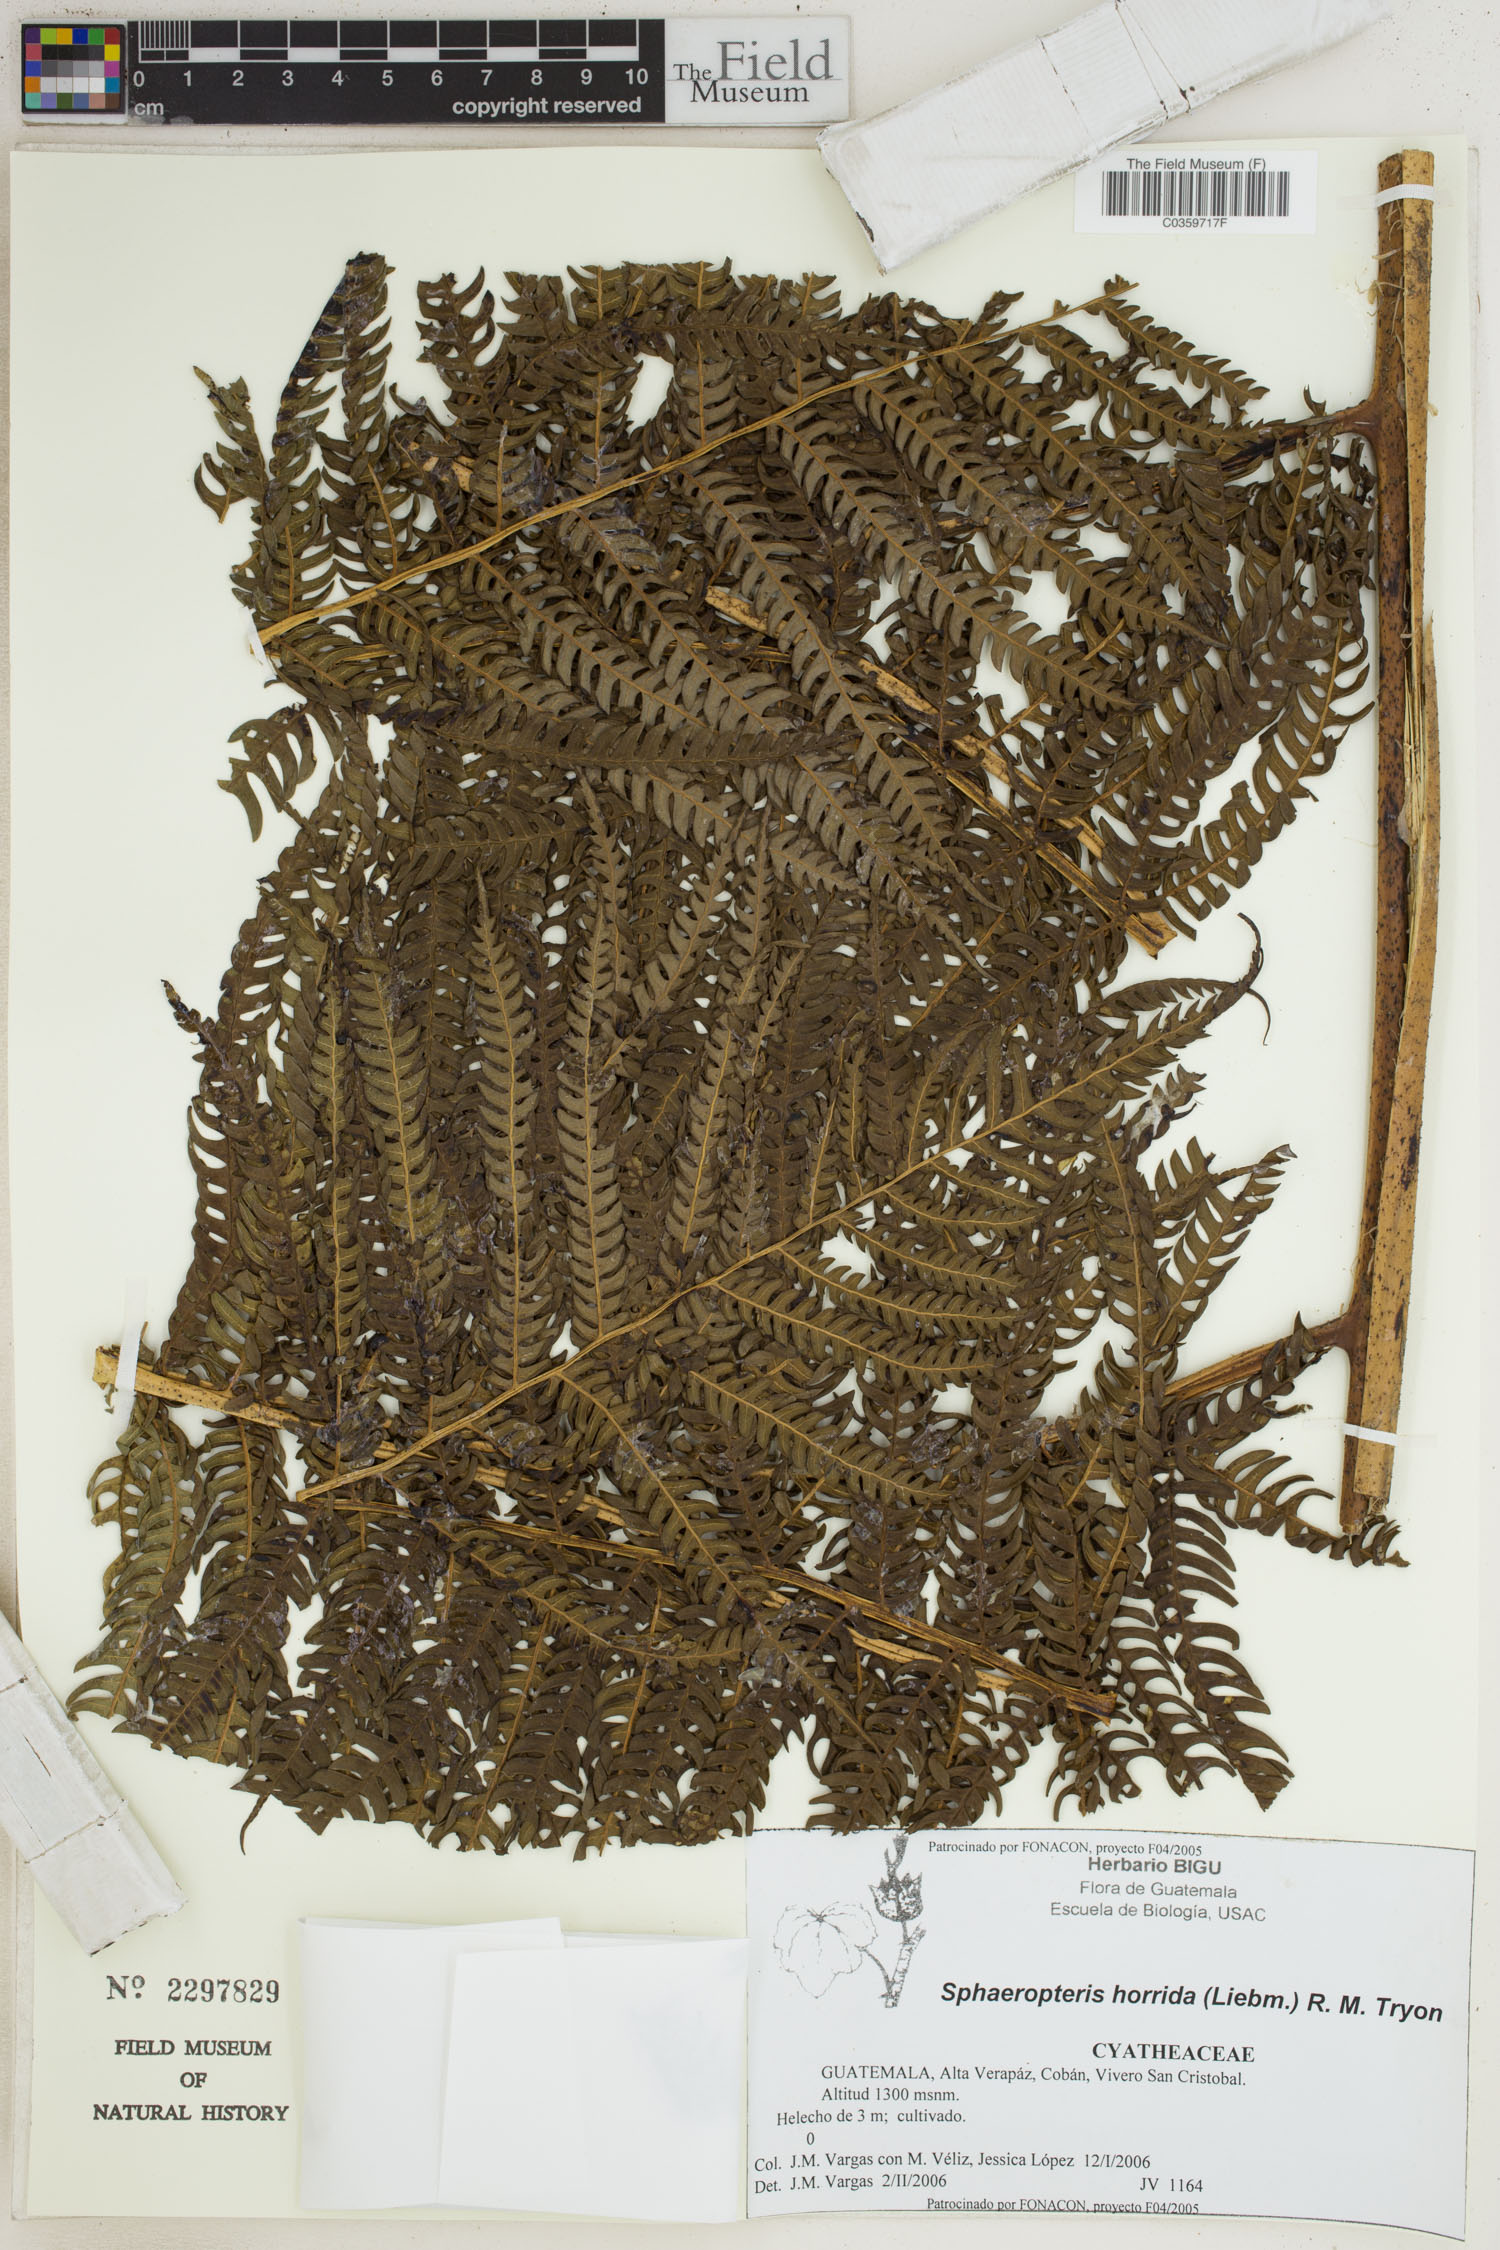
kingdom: Plantae
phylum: Tracheophyta
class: Polypodiopsida
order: Cyatheales
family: Cyatheaceae
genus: Sphaeropteris
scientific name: Sphaeropteris horrida
